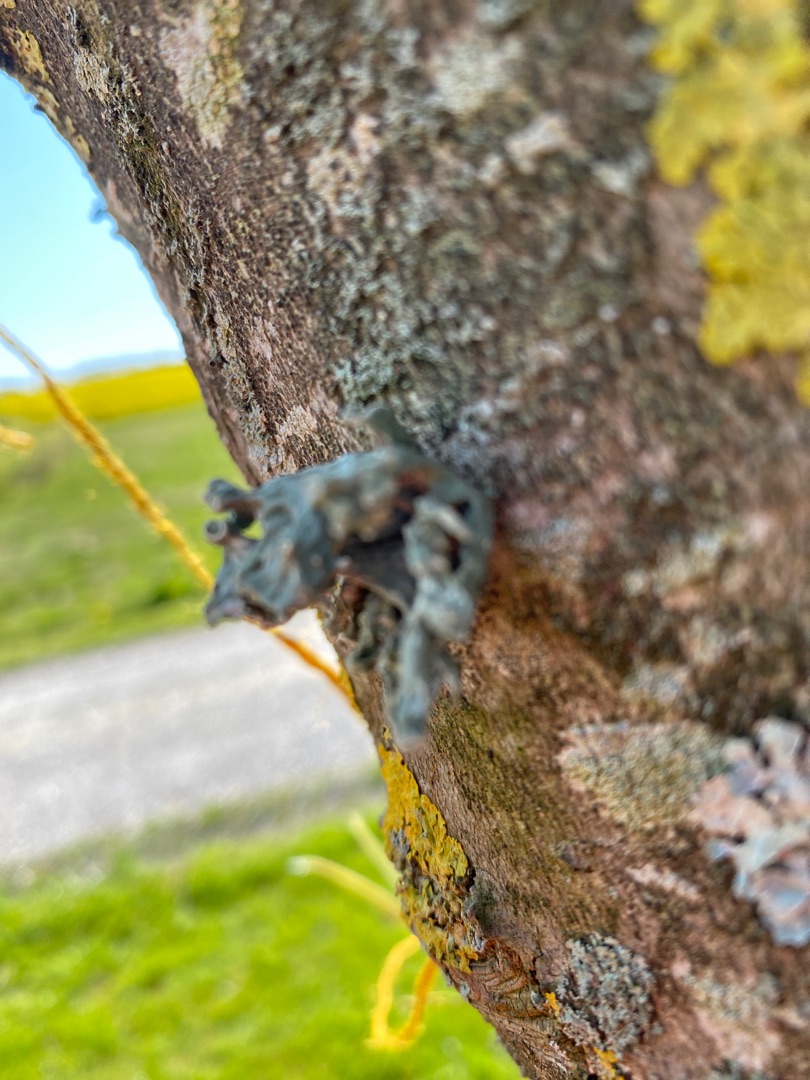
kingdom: Fungi
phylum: Ascomycota
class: Lecanoromycetes
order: Lecanorales
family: Ramalinaceae
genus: Ramalina
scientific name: Ramalina fastigiata
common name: Tue-grenlav
